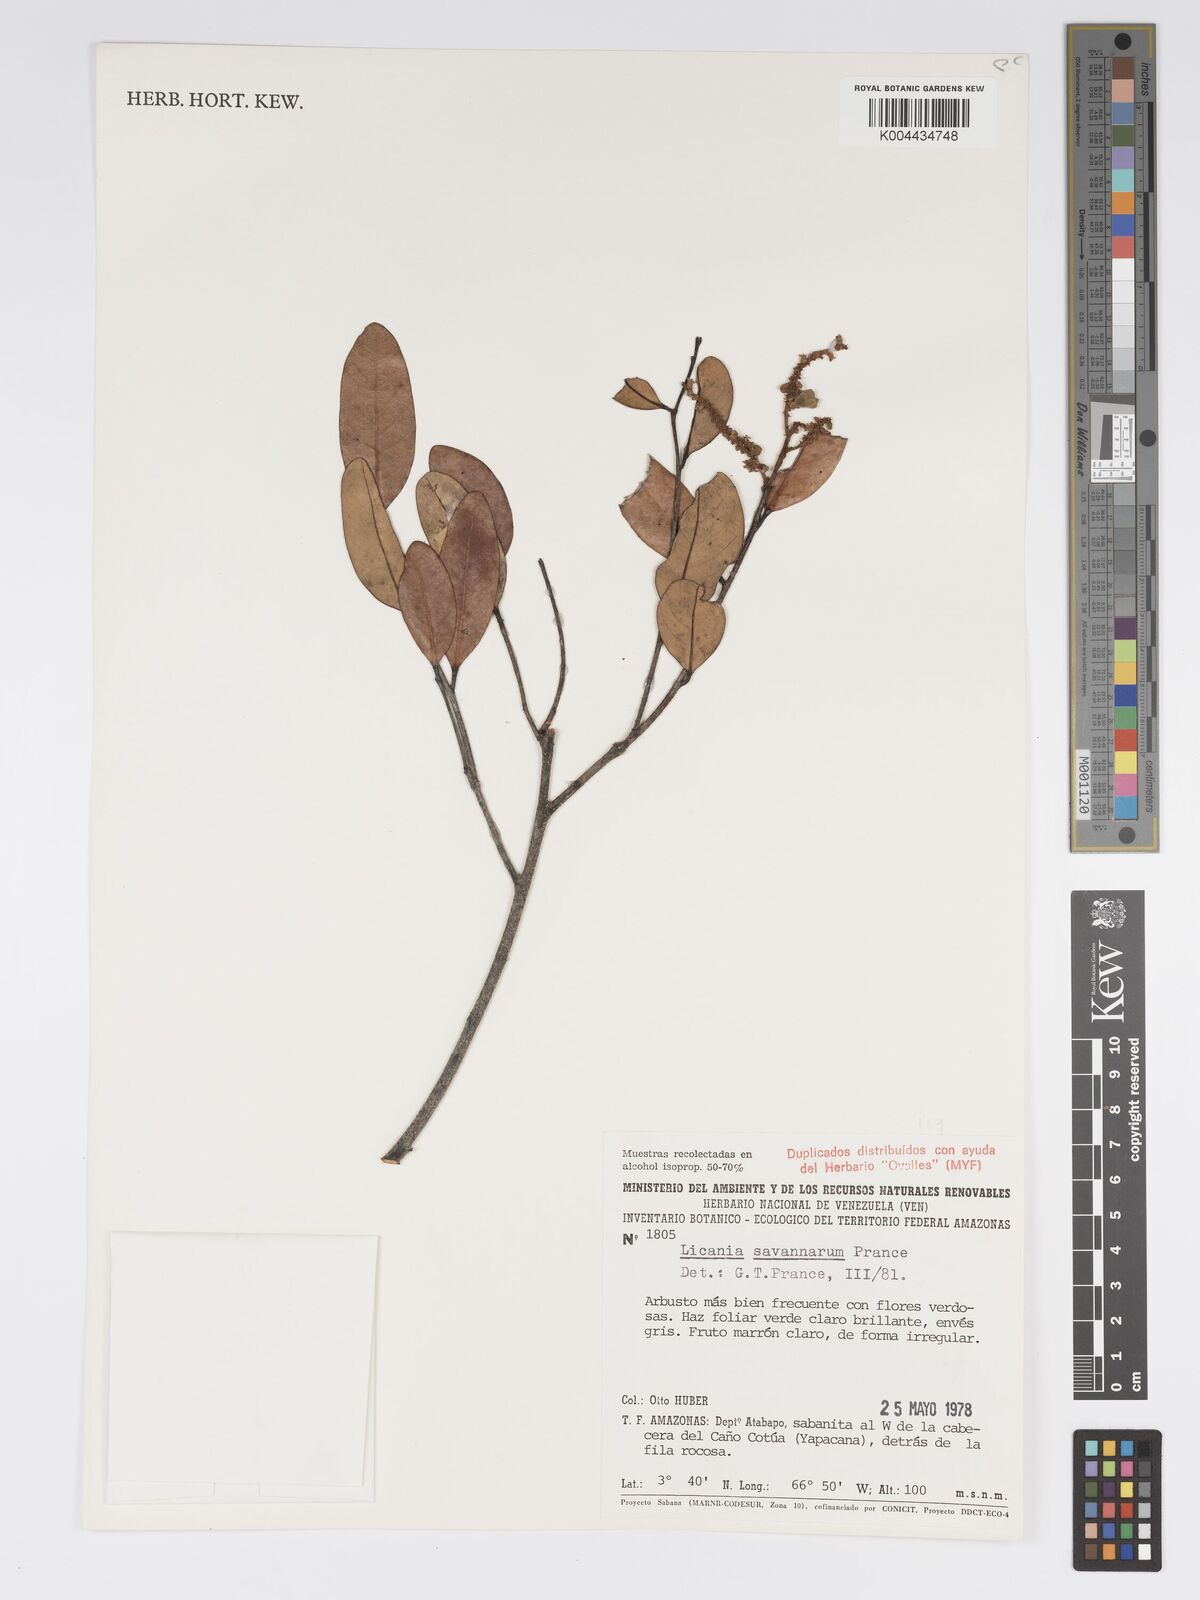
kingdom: Plantae
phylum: Tracheophyta
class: Magnoliopsida
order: Malpighiales
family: Chrysobalanaceae
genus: Licania
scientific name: Licania savannarum
